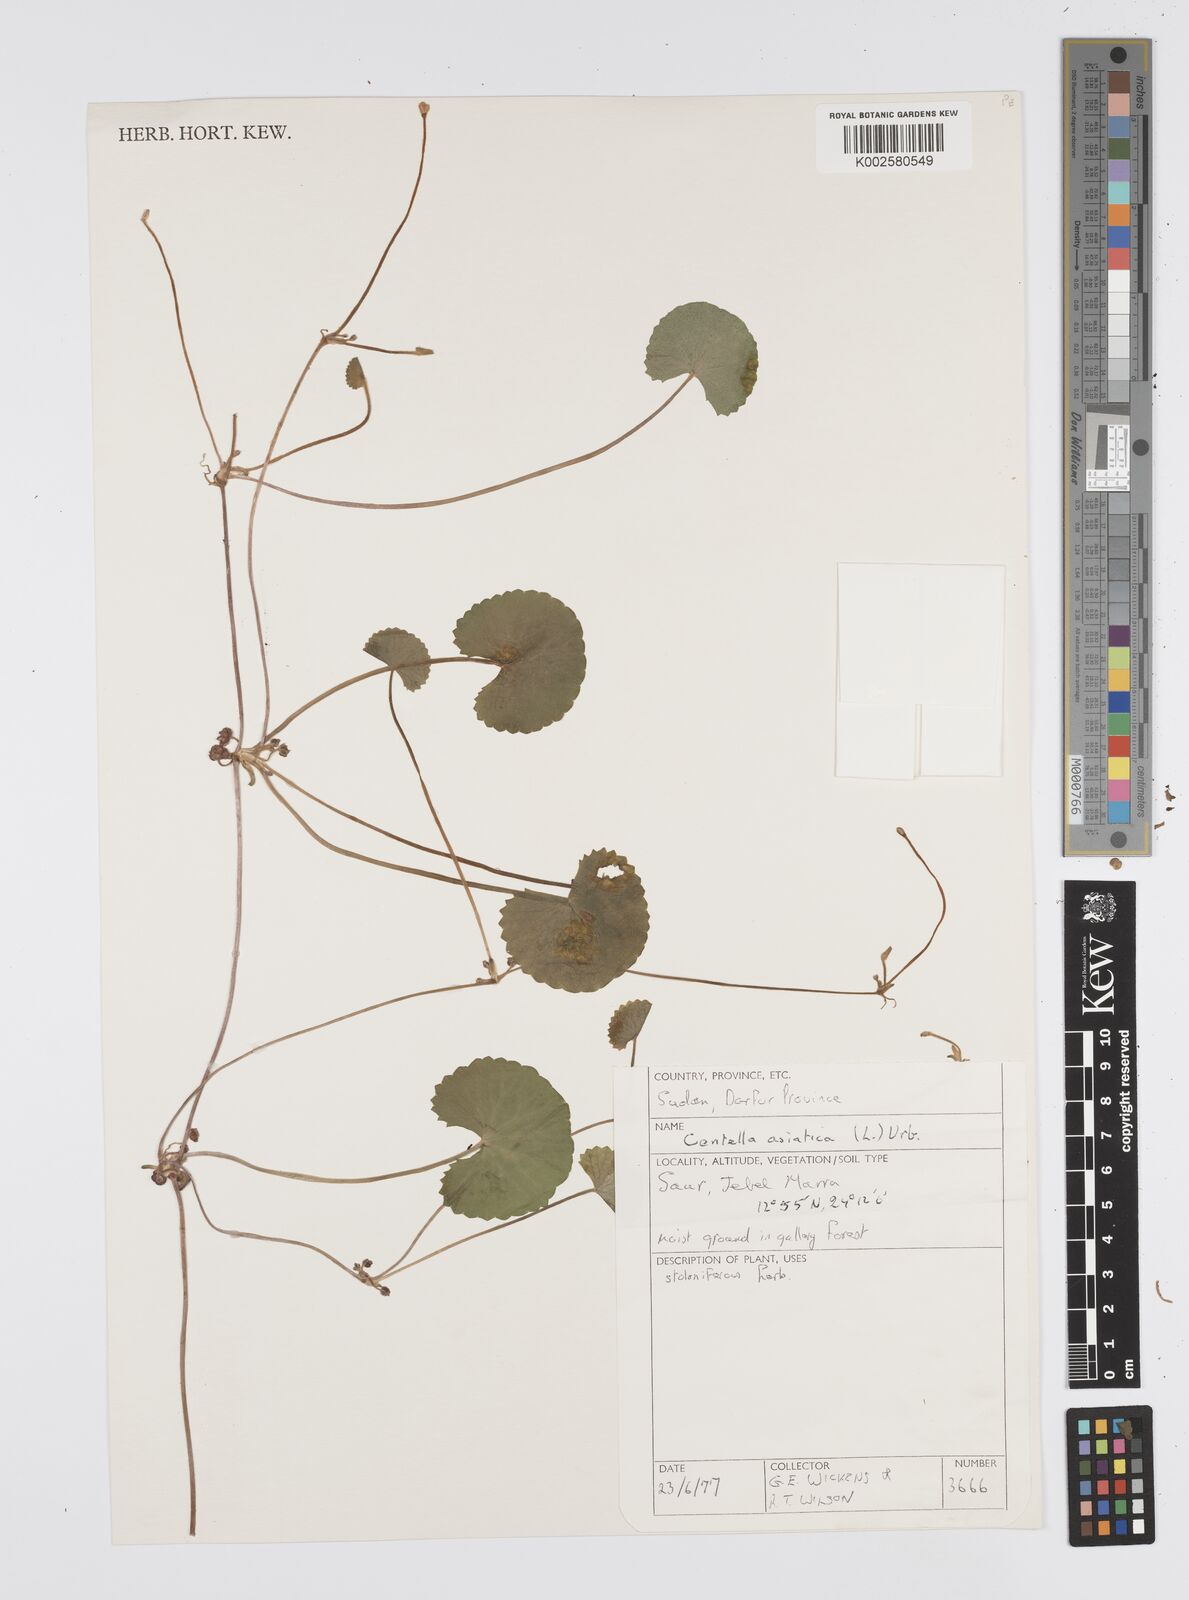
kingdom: Plantae
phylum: Tracheophyta
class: Magnoliopsida
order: Apiales
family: Apiaceae
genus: Centella
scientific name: Centella asiatica
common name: Spadeleaf
